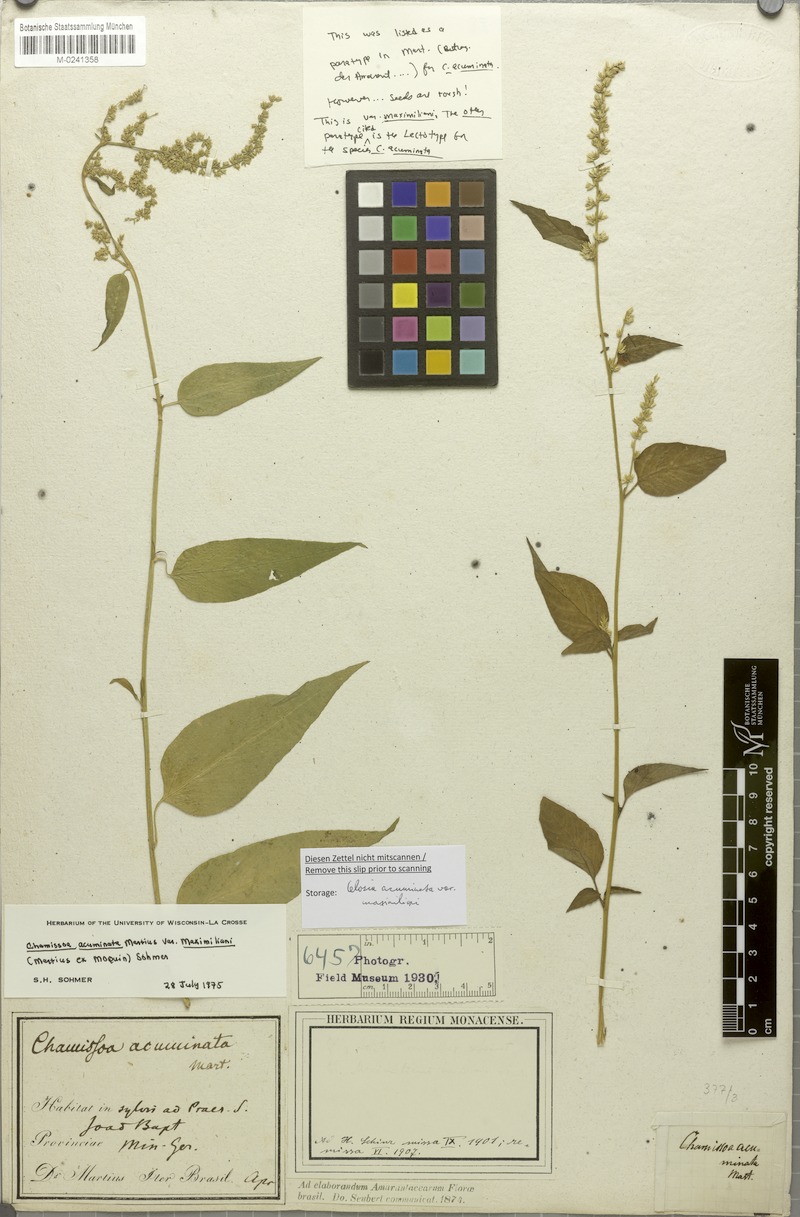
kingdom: Plantae
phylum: Tracheophyta
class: Magnoliopsida
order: Caryophyllales
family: Amaranthaceae
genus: Chamissoa
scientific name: Chamissoa maximiliani
